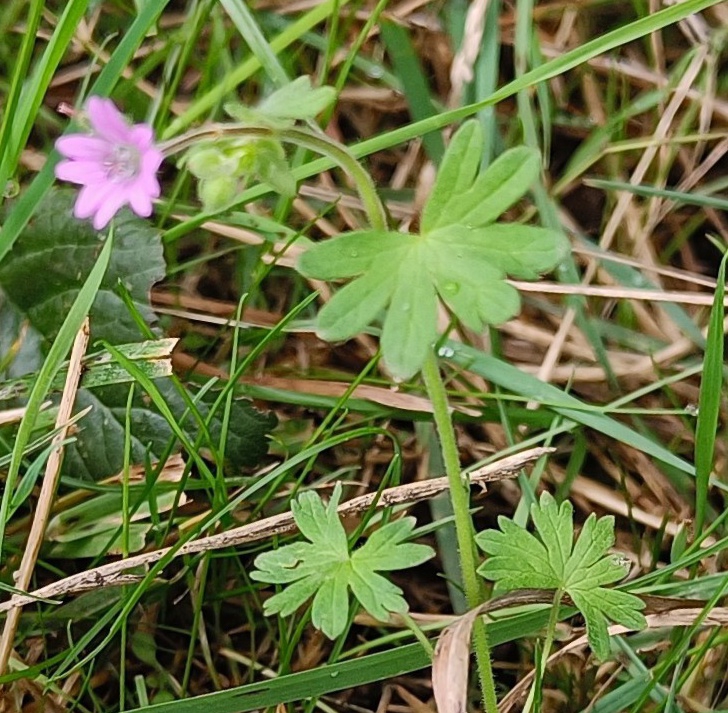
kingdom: Plantae
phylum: Tracheophyta
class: Magnoliopsida
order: Geraniales
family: Geraniaceae
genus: Geranium
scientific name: Geranium molle
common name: Blød storkenæb
